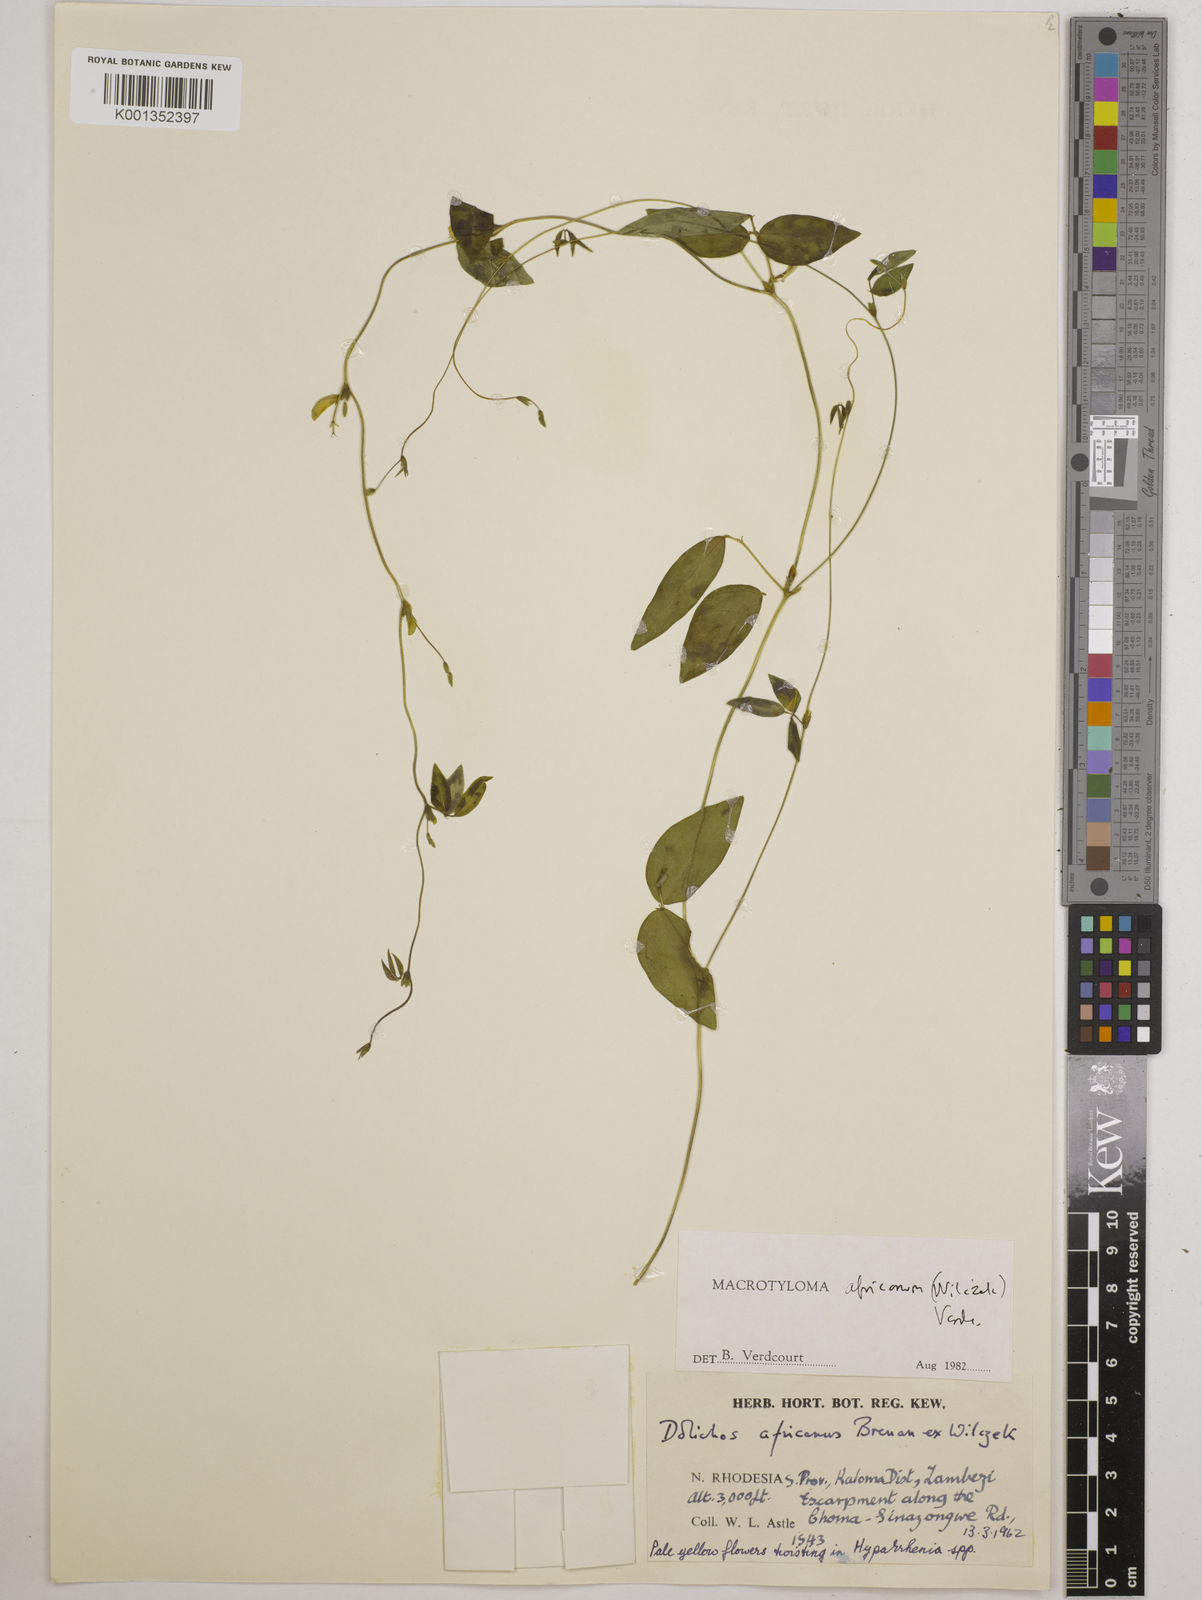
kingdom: Plantae
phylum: Tracheophyta
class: Magnoliopsida
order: Fabales
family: Fabaceae
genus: Macrotyloma
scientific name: Macrotyloma africanum
